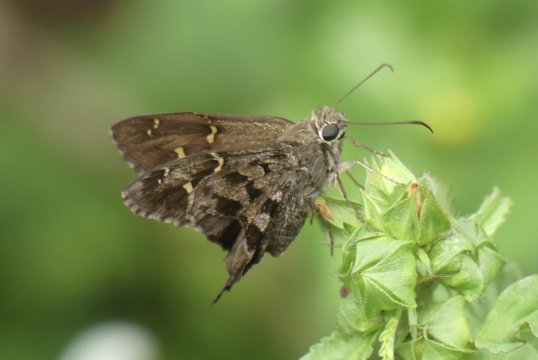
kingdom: Animalia
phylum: Arthropoda
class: Insecta
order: Lepidoptera
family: Hesperiidae
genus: Urbanus
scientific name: Urbanus dorantes
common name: Dorantes Longtail
